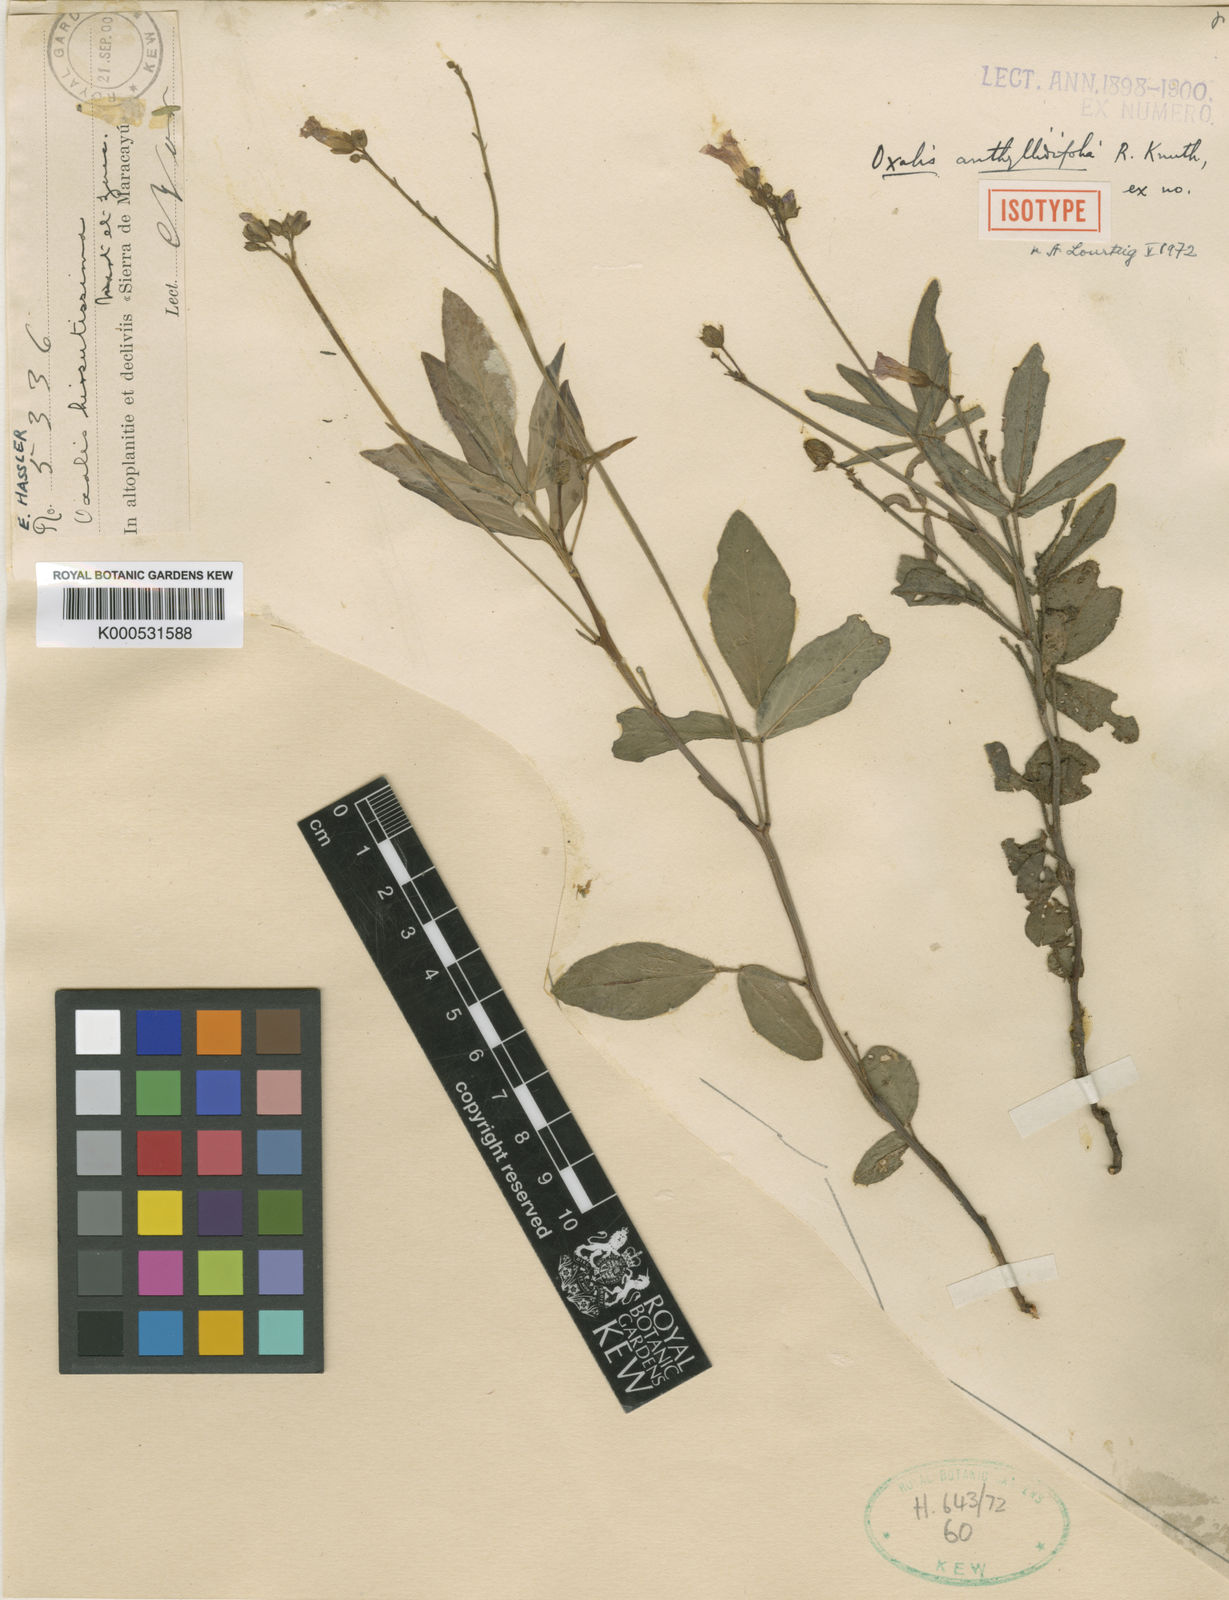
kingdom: Plantae
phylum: Tracheophyta
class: Magnoliopsida
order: Oxalidales
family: Oxalidaceae
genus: Oxalis
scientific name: Oxalis sellowii
